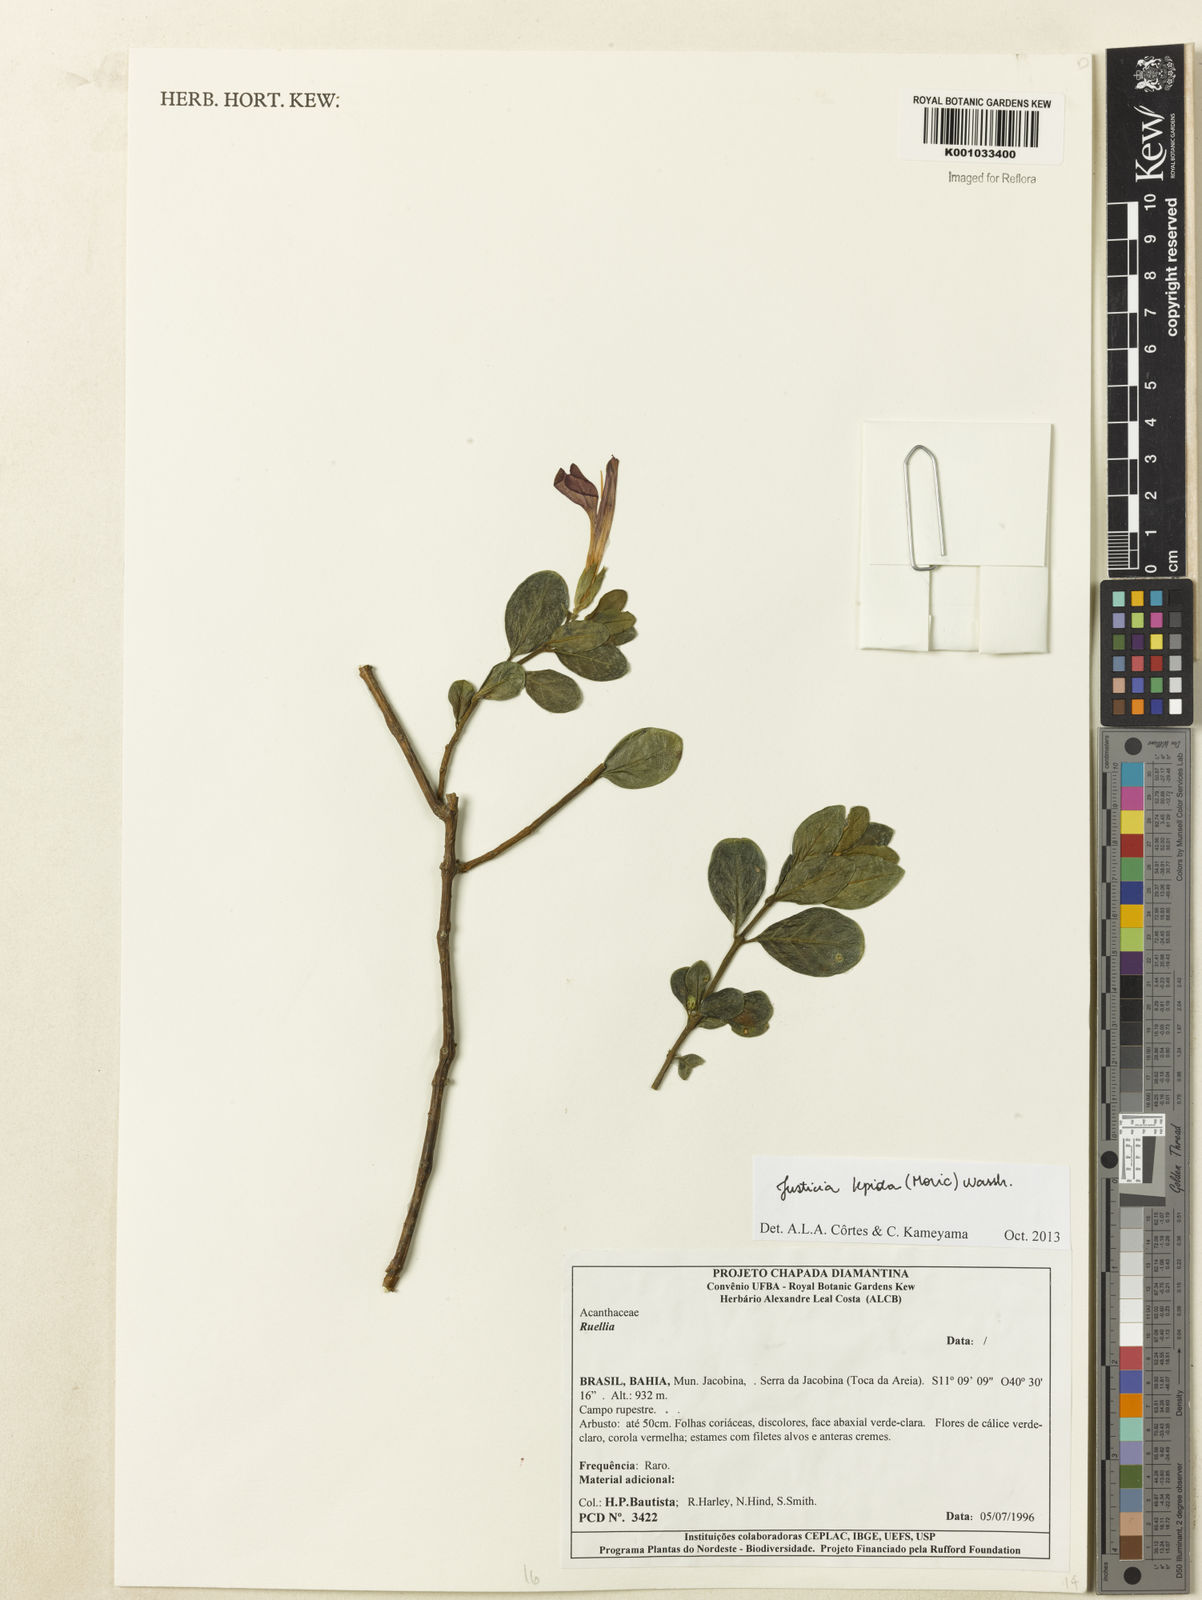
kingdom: Plantae
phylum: Tracheophyta
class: Magnoliopsida
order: Lamiales
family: Acanthaceae
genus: Justicia
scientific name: Justicia lepida
